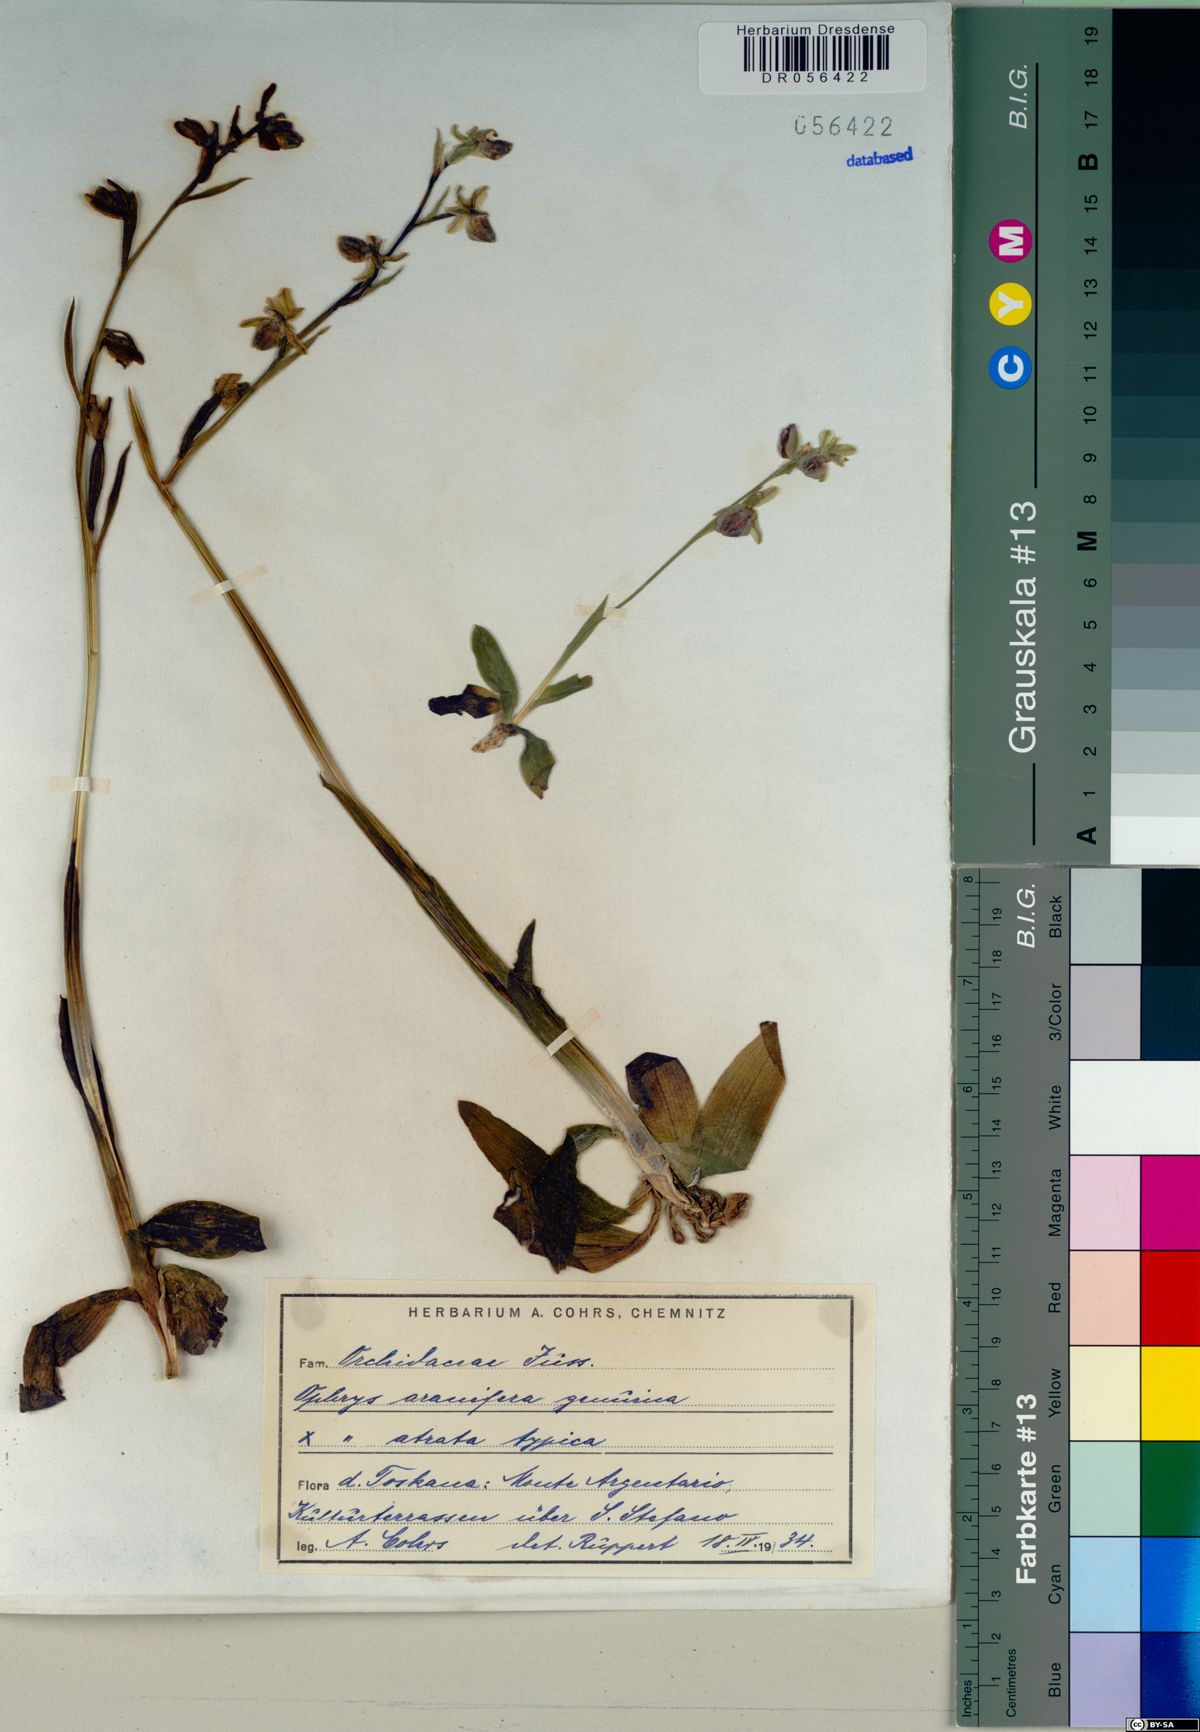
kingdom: Plantae
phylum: Tracheophyta
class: Liliopsida
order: Asparagales
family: Orchidaceae
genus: Ophrys
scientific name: Ophrys sphegodes
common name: Early spider-orchid
